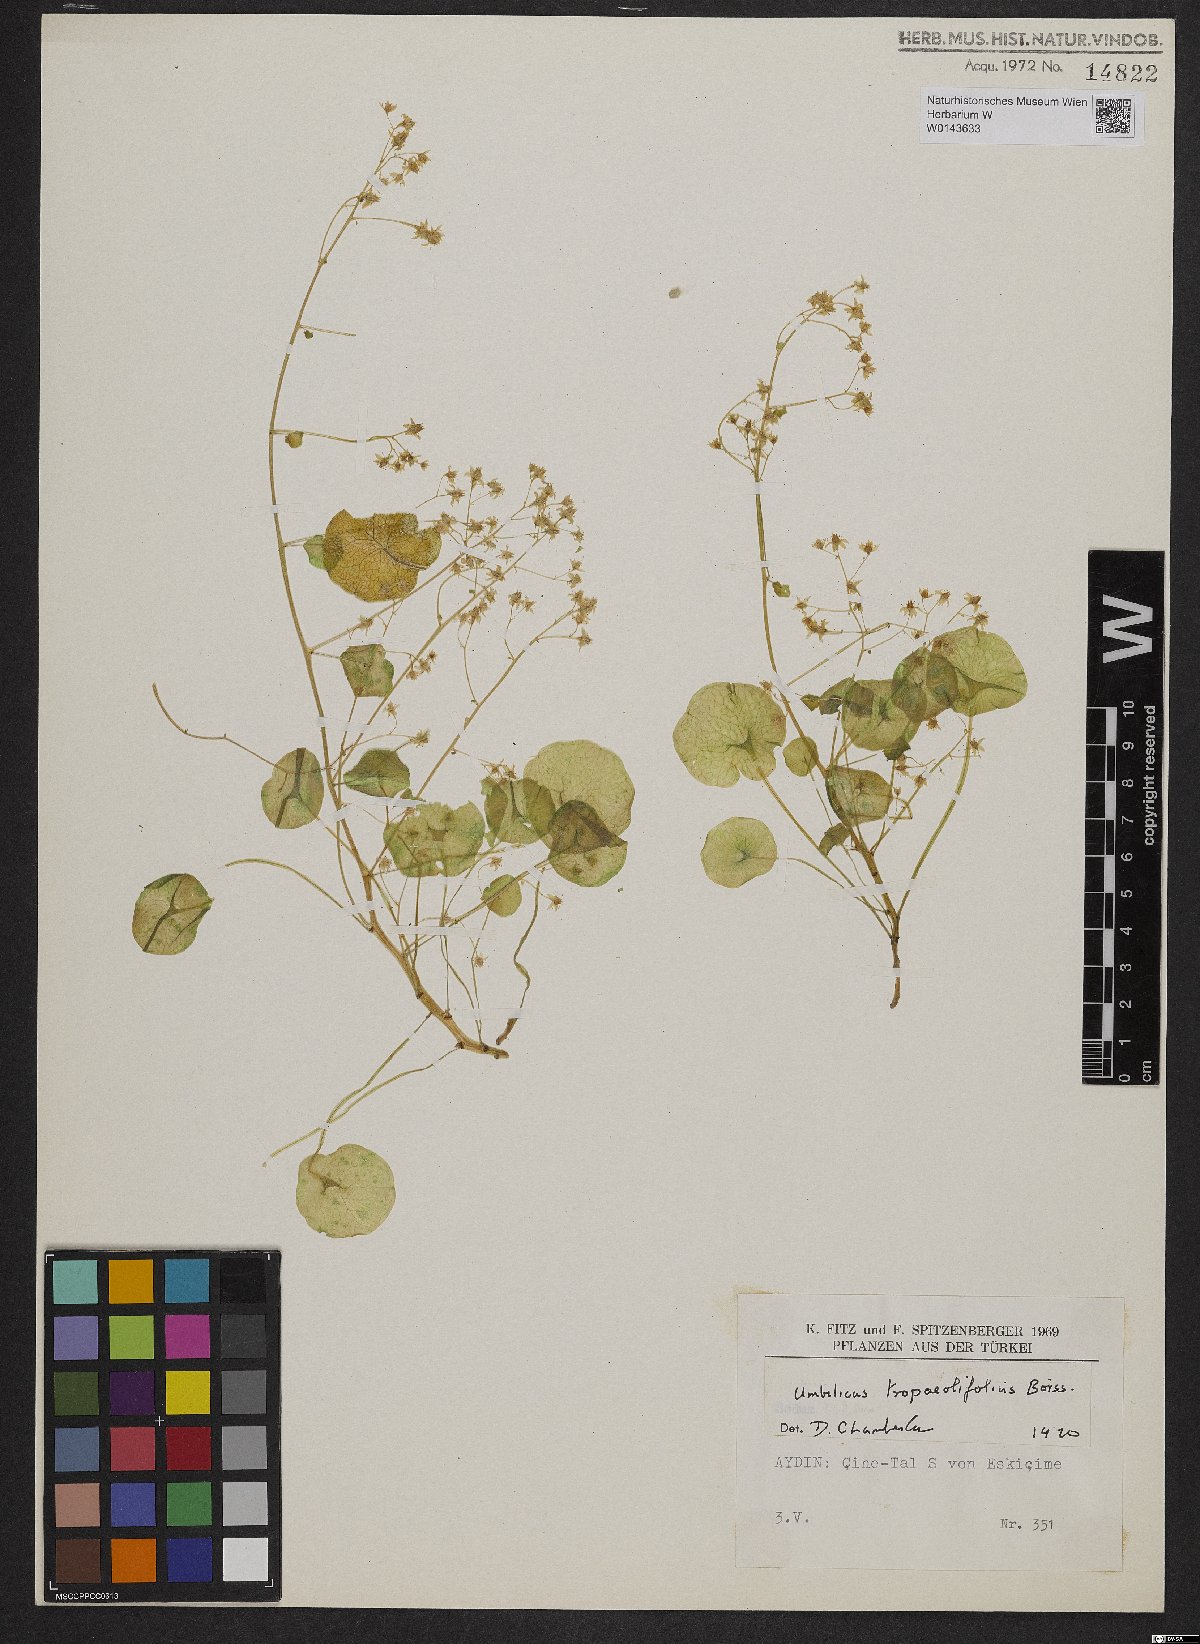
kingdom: Plantae
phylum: Tracheophyta
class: Magnoliopsida
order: Saxifragales
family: Crassulaceae
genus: Umbilicus
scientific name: Umbilicus tropaeolifolius
